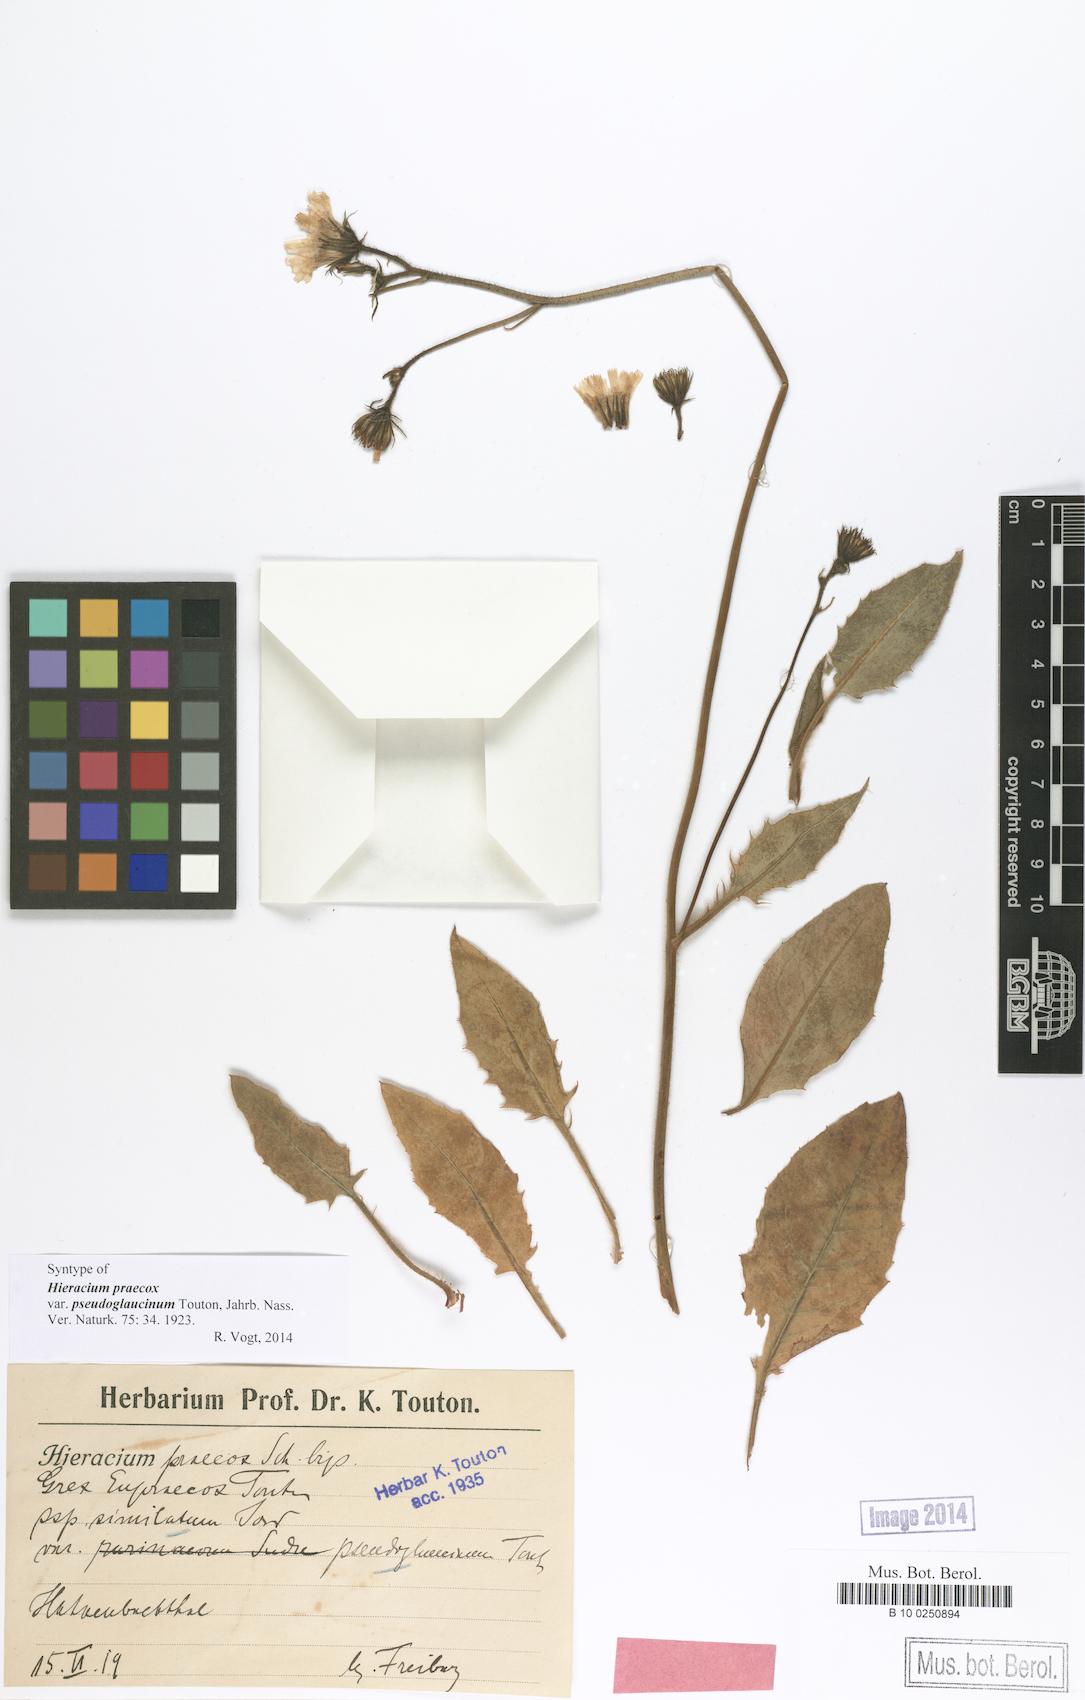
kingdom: Plantae
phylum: Tracheophyta
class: Magnoliopsida
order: Asterales
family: Asteraceae
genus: Hieracium
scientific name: Hieracium praecox
